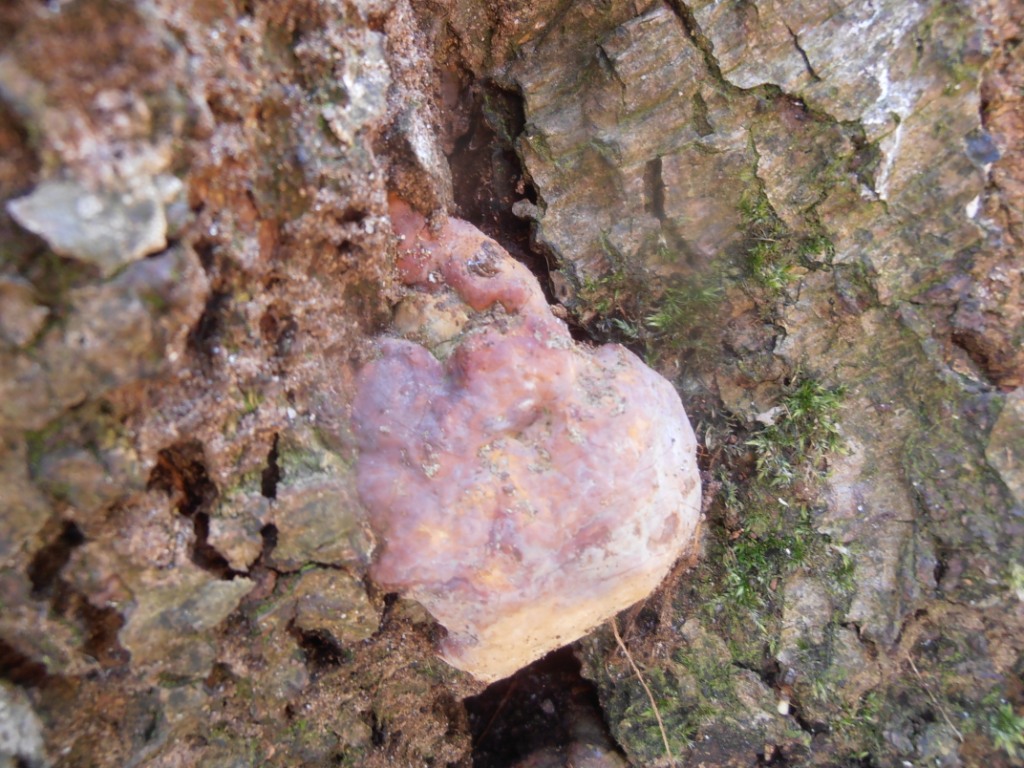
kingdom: Fungi
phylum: Basidiomycota
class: Agaricomycetes
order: Polyporales
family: Polyporaceae
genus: Ganoderma
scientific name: Ganoderma pfeifferi
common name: kobberrød lakporesvamp
